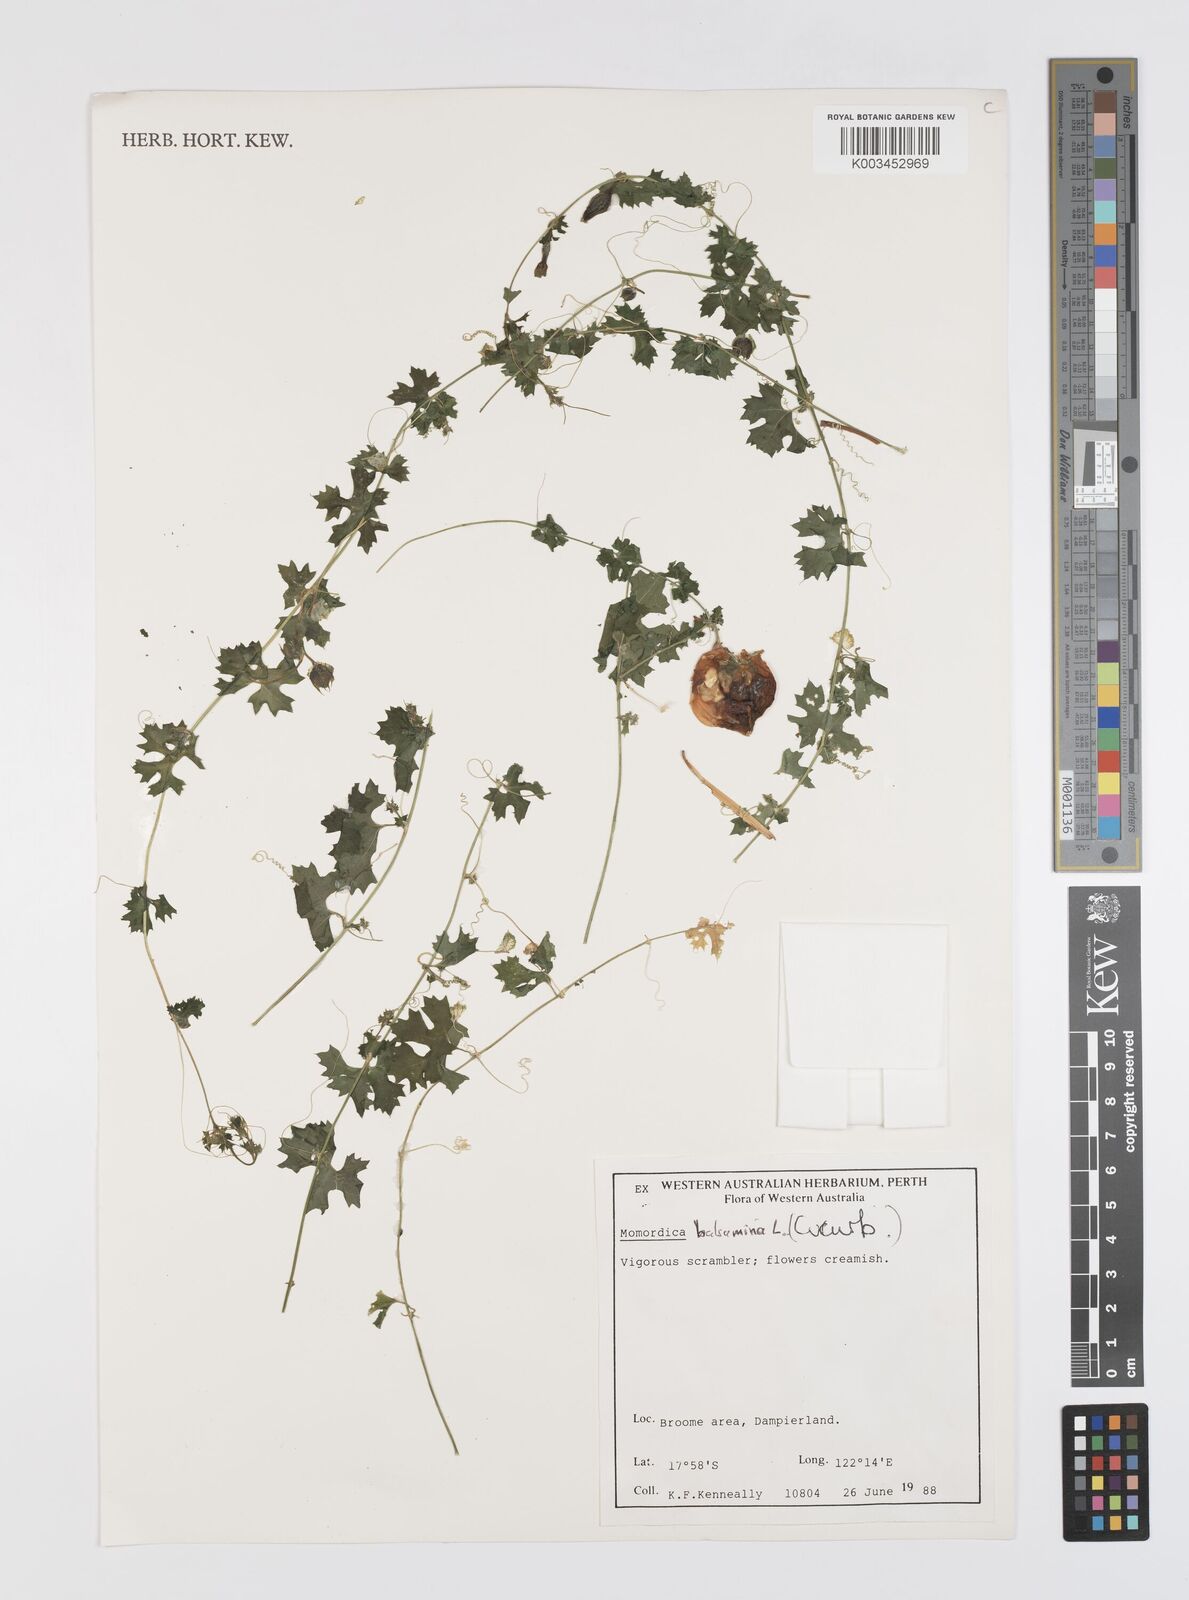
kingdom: Plantae
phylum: Tracheophyta
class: Magnoliopsida
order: Cucurbitales
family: Cucurbitaceae
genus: Momordica
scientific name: Momordica balsamina
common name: Southern balsampear
